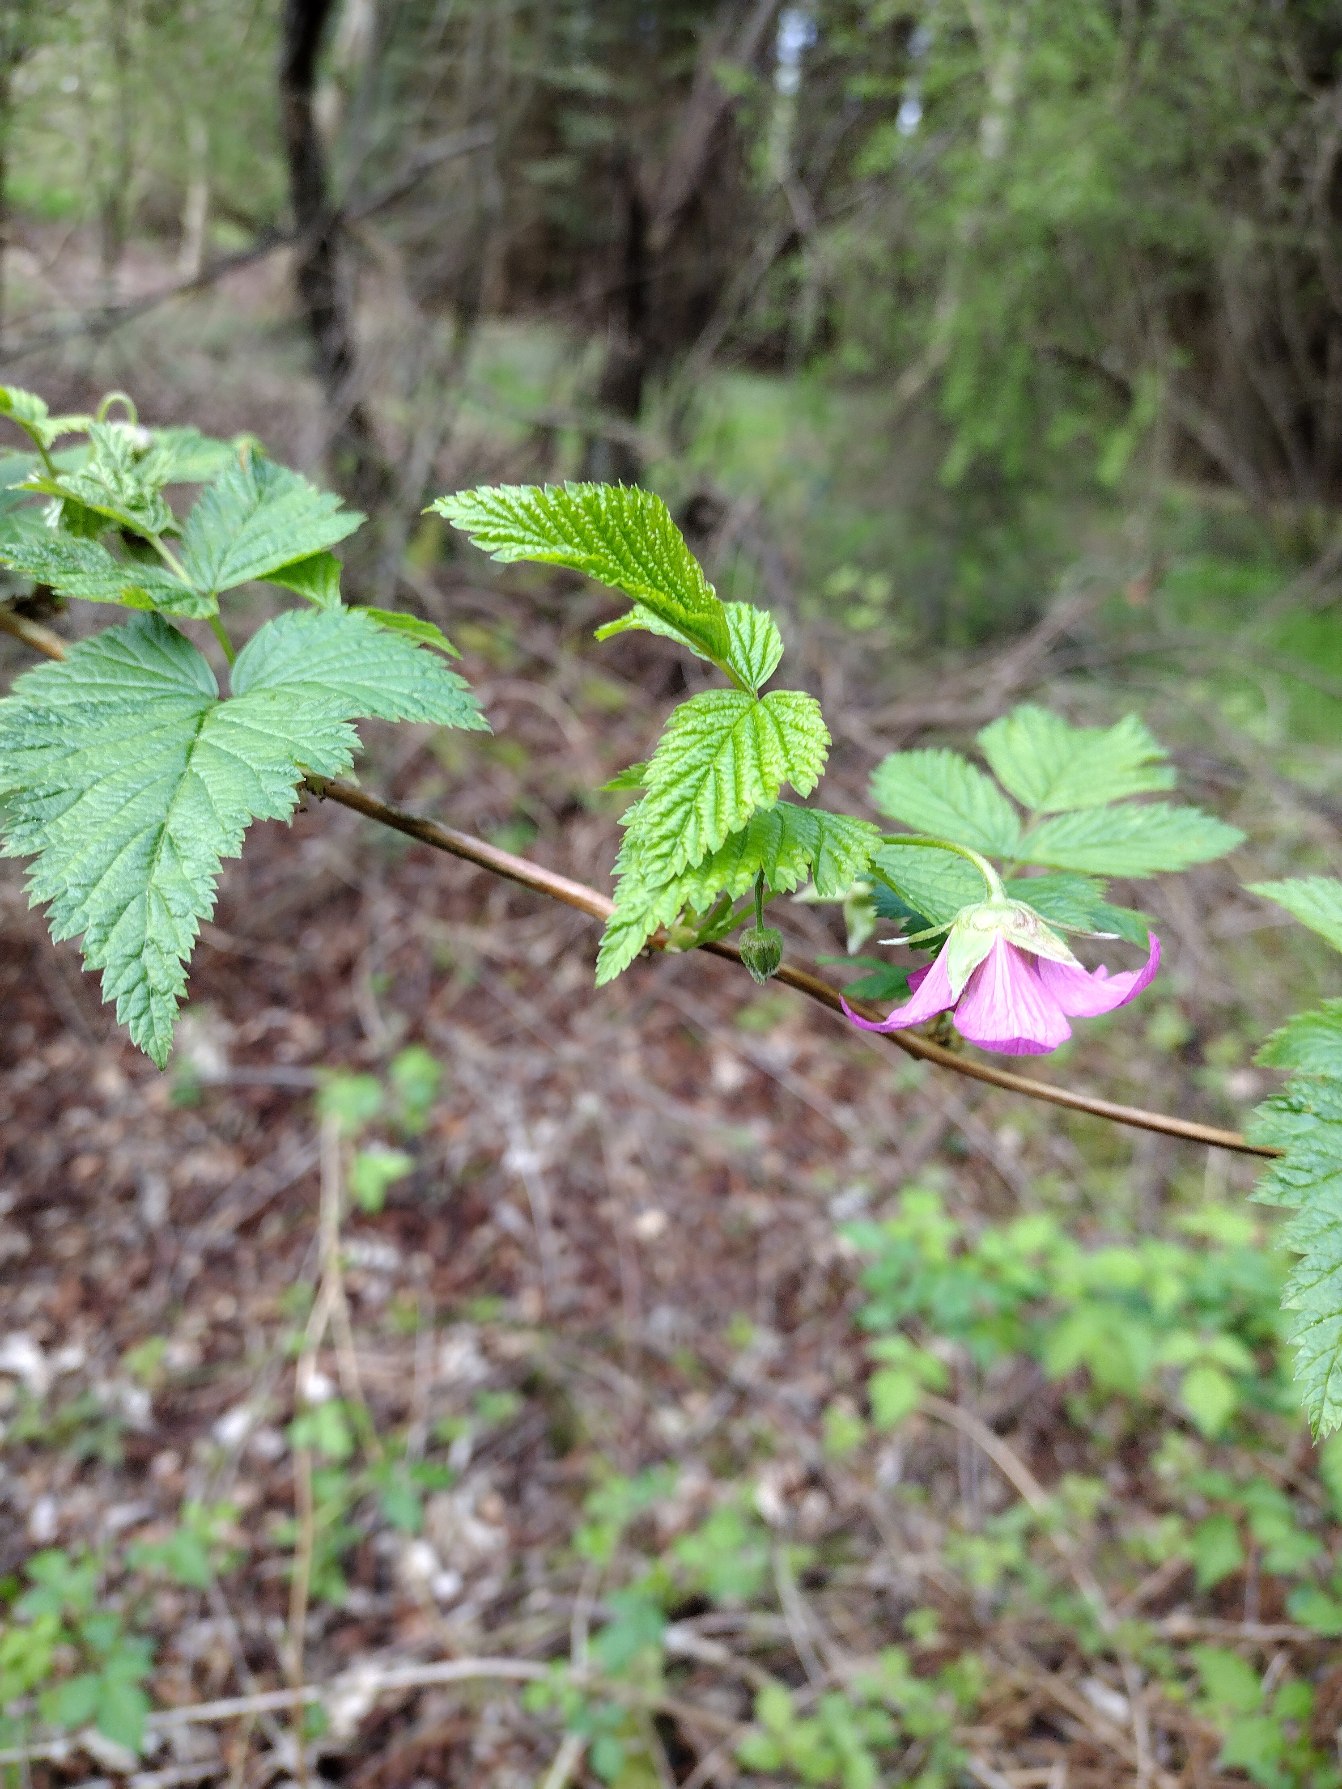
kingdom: Plantae
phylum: Tracheophyta
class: Magnoliopsida
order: Rosales
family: Rosaceae
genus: Rubus
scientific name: Rubus spectabilis
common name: Laksebær
